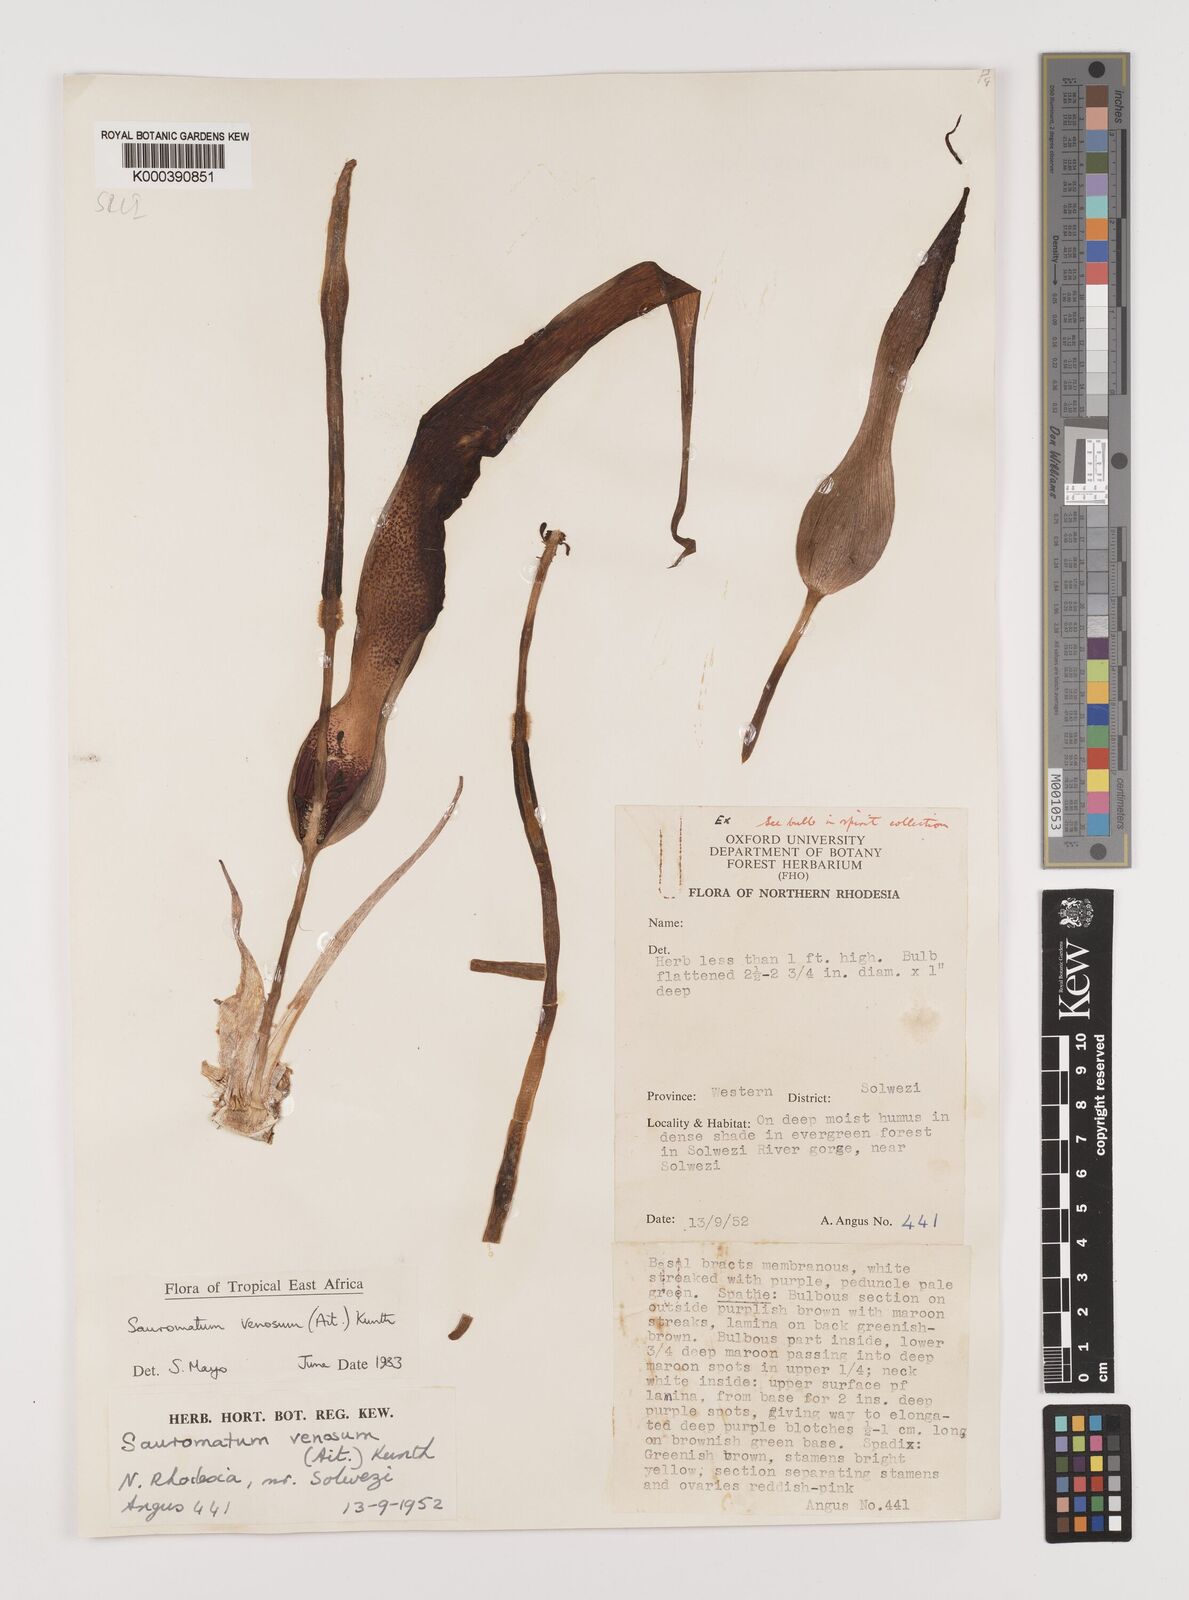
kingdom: Plantae
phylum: Tracheophyta
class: Liliopsida
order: Alismatales
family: Araceae
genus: Sauromatum
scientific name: Sauromatum venosum
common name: Voodoo lily
